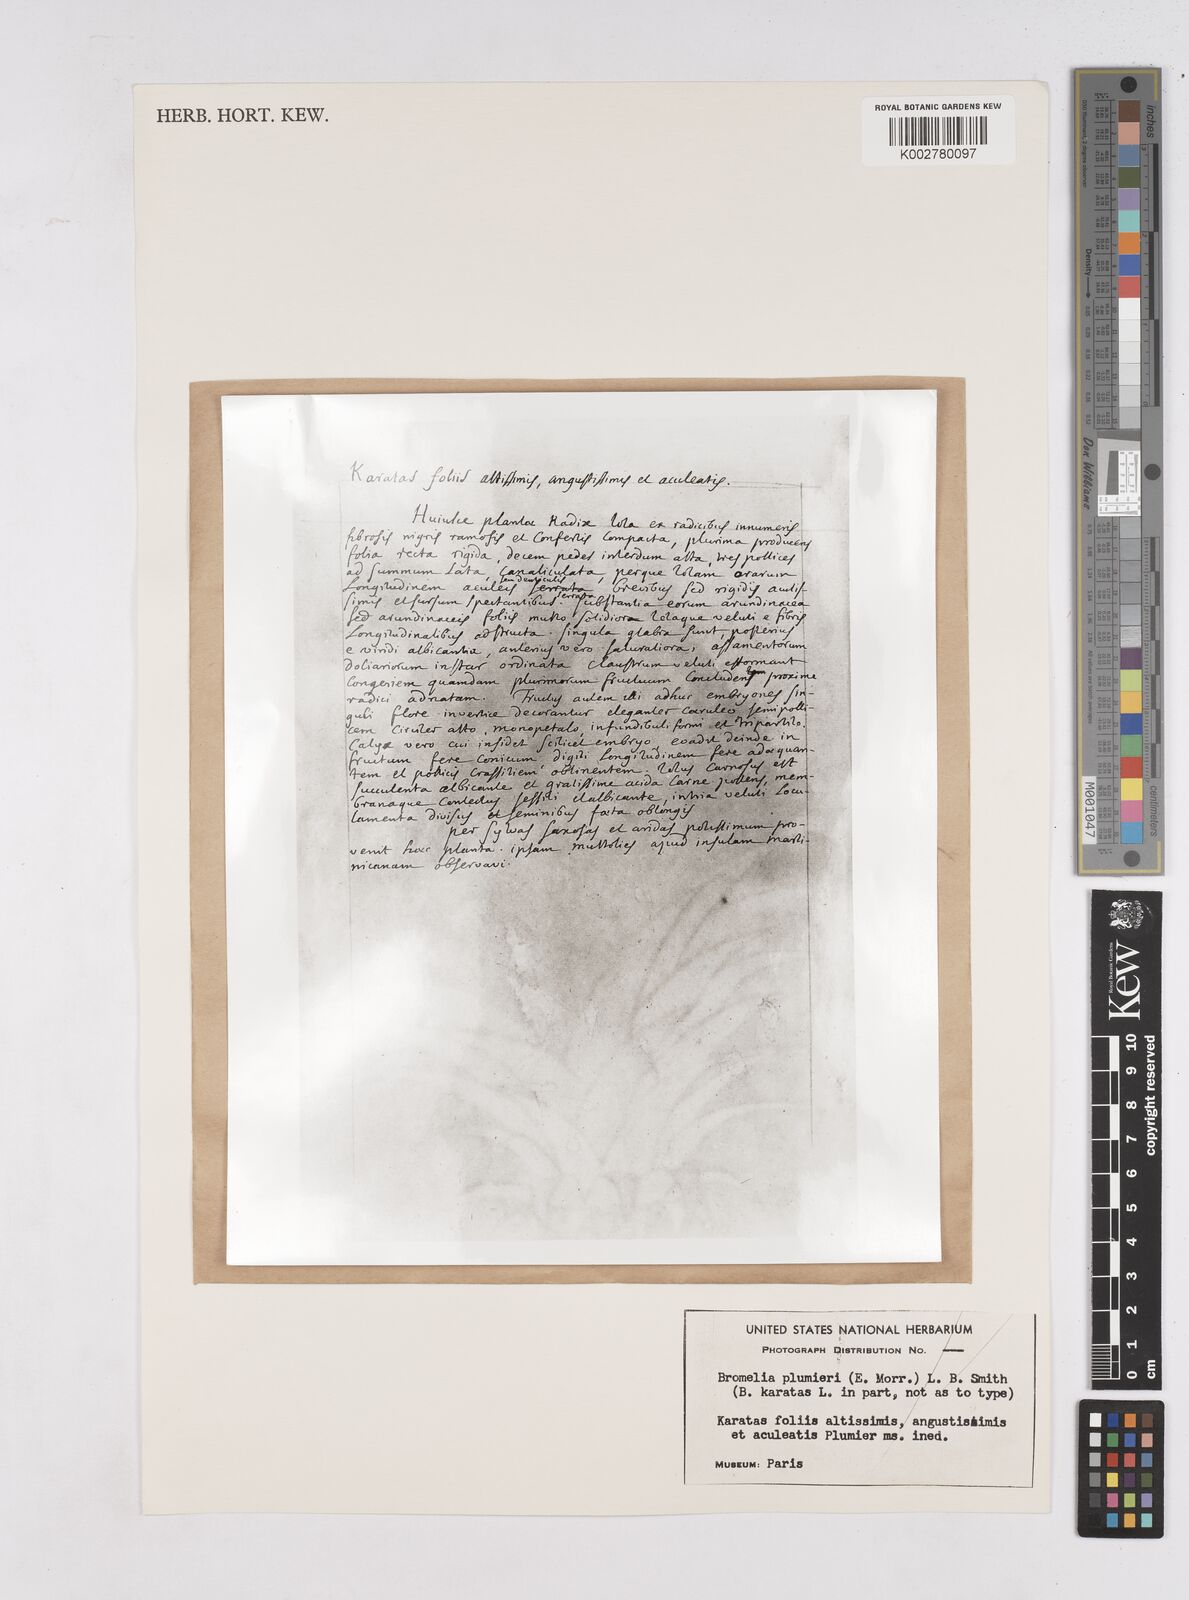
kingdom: Plantae
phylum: Tracheophyta
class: Liliopsida
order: Poales
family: Bromeliaceae
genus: Bromelia
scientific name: Bromelia karatas
